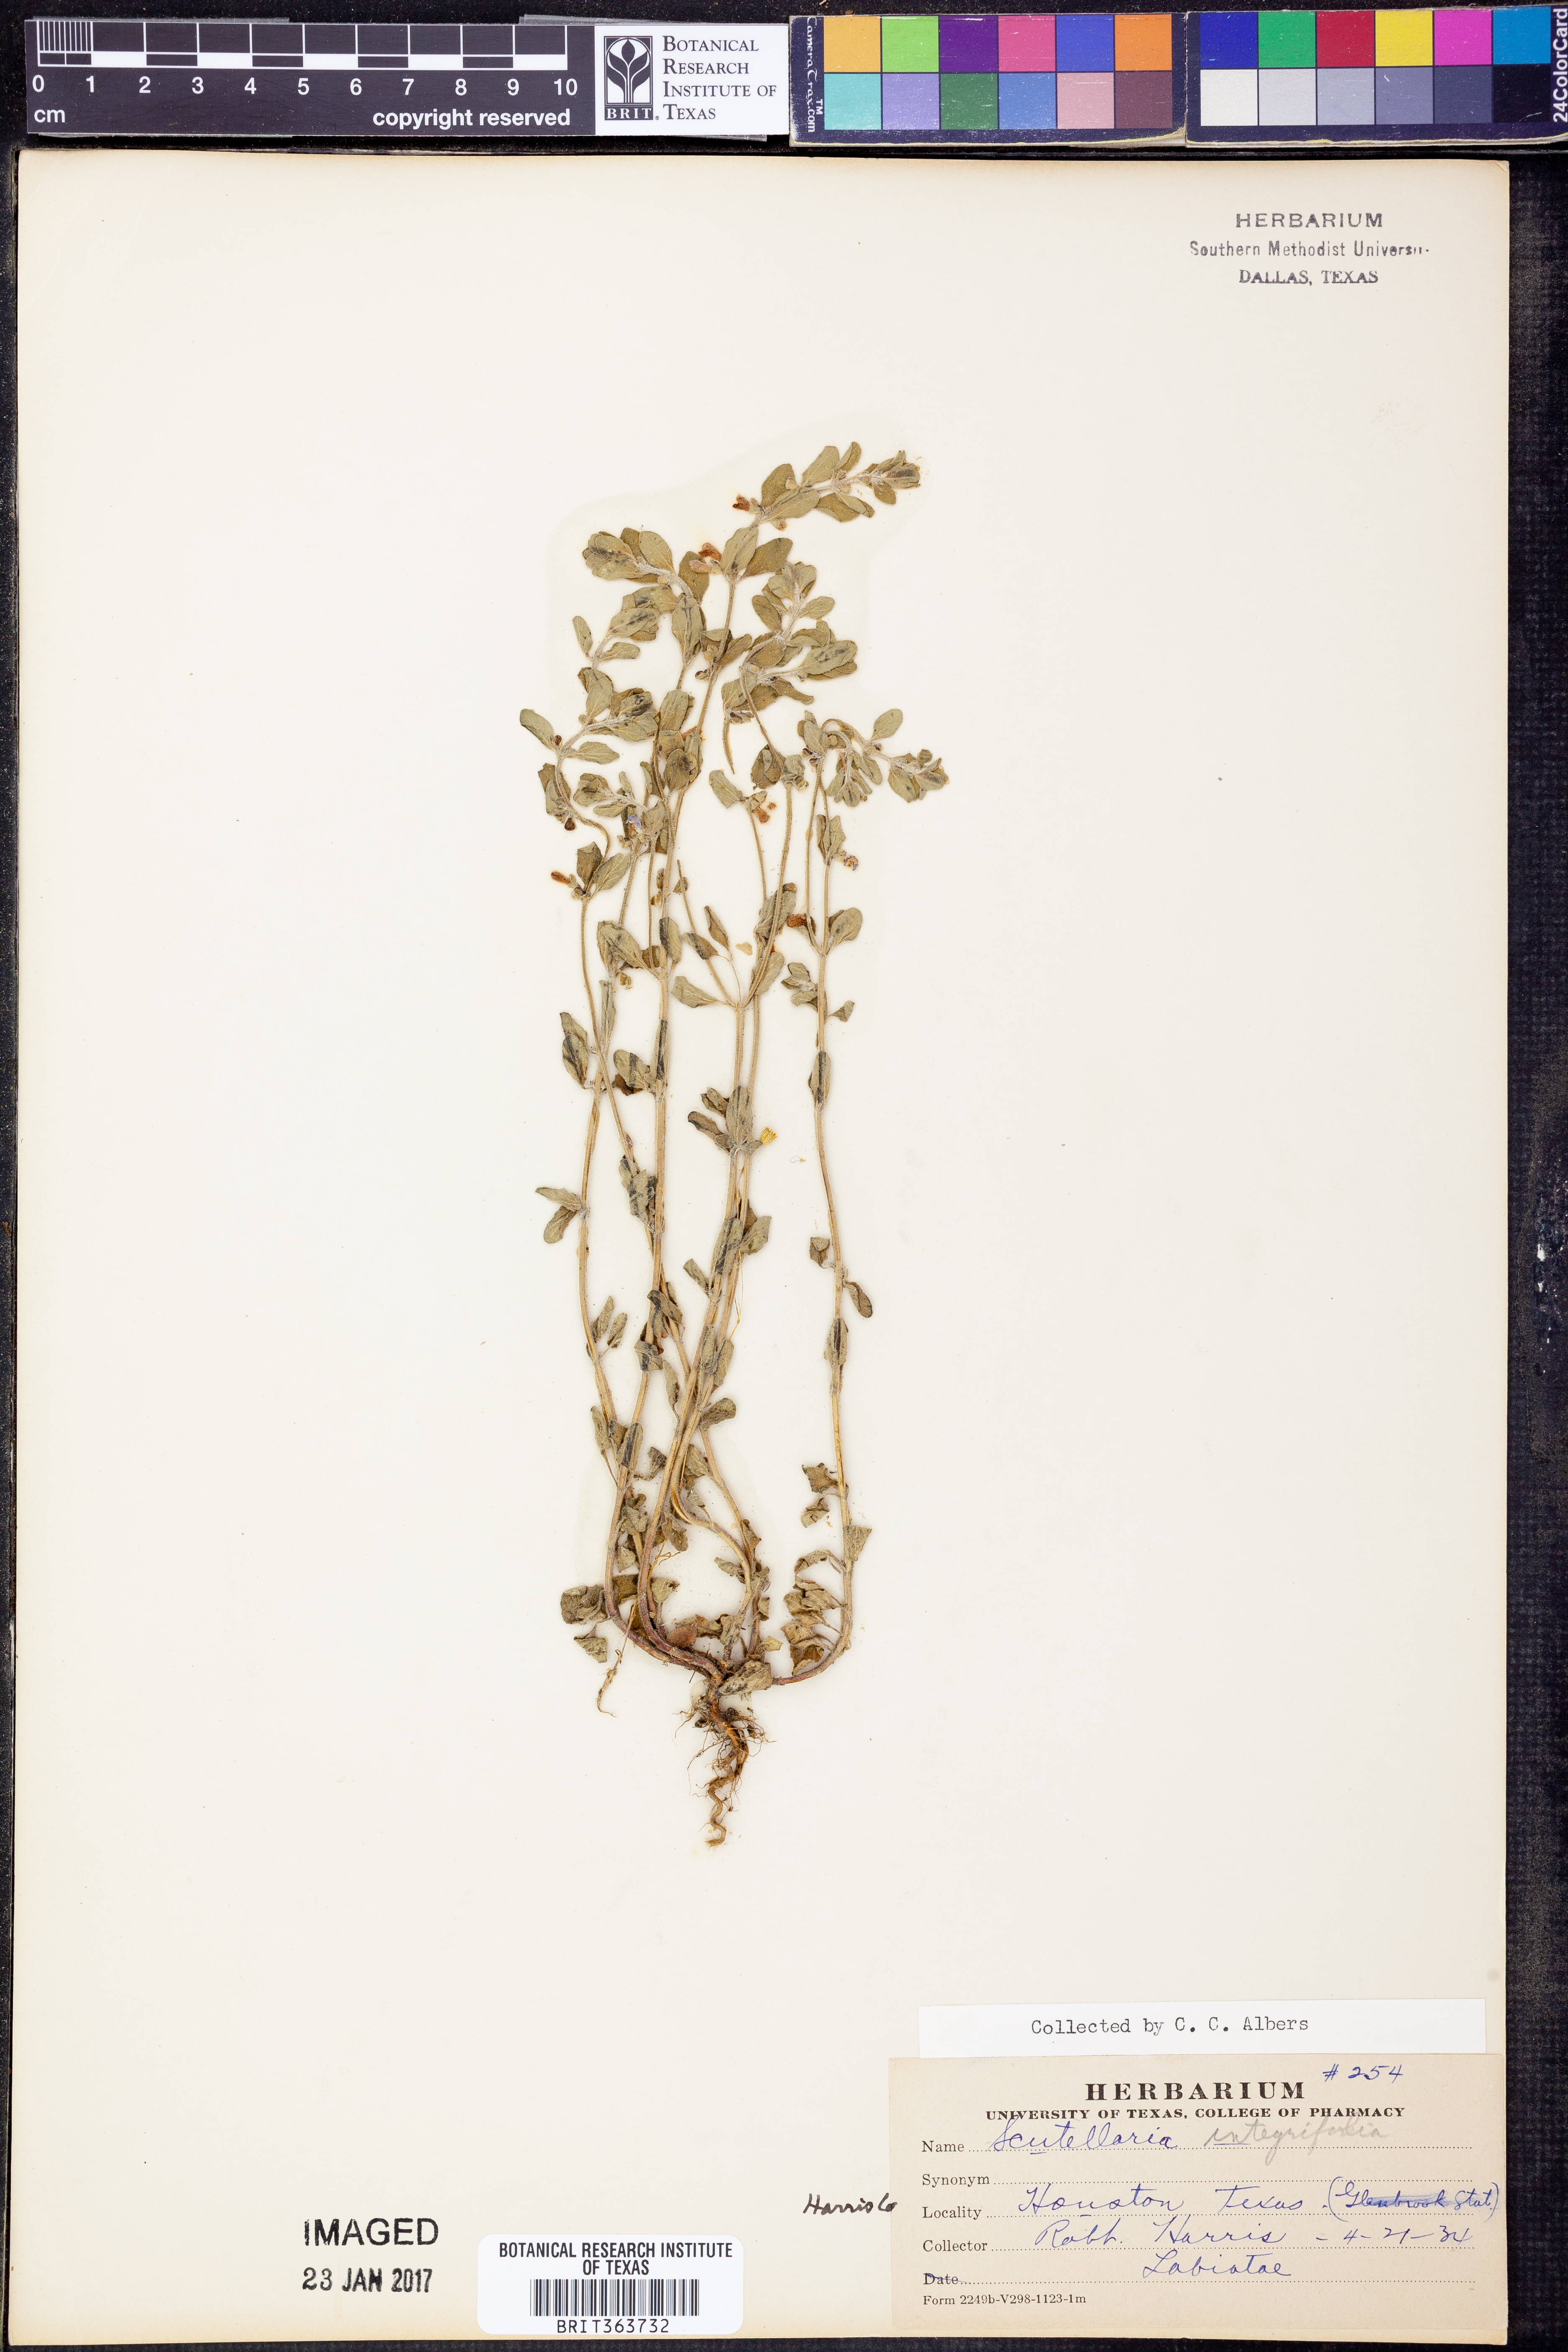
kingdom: Plantae
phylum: Tracheophyta
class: Magnoliopsida
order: Lamiales
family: Lamiaceae
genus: Scutellaria
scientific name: Scutellaria integrifolia
